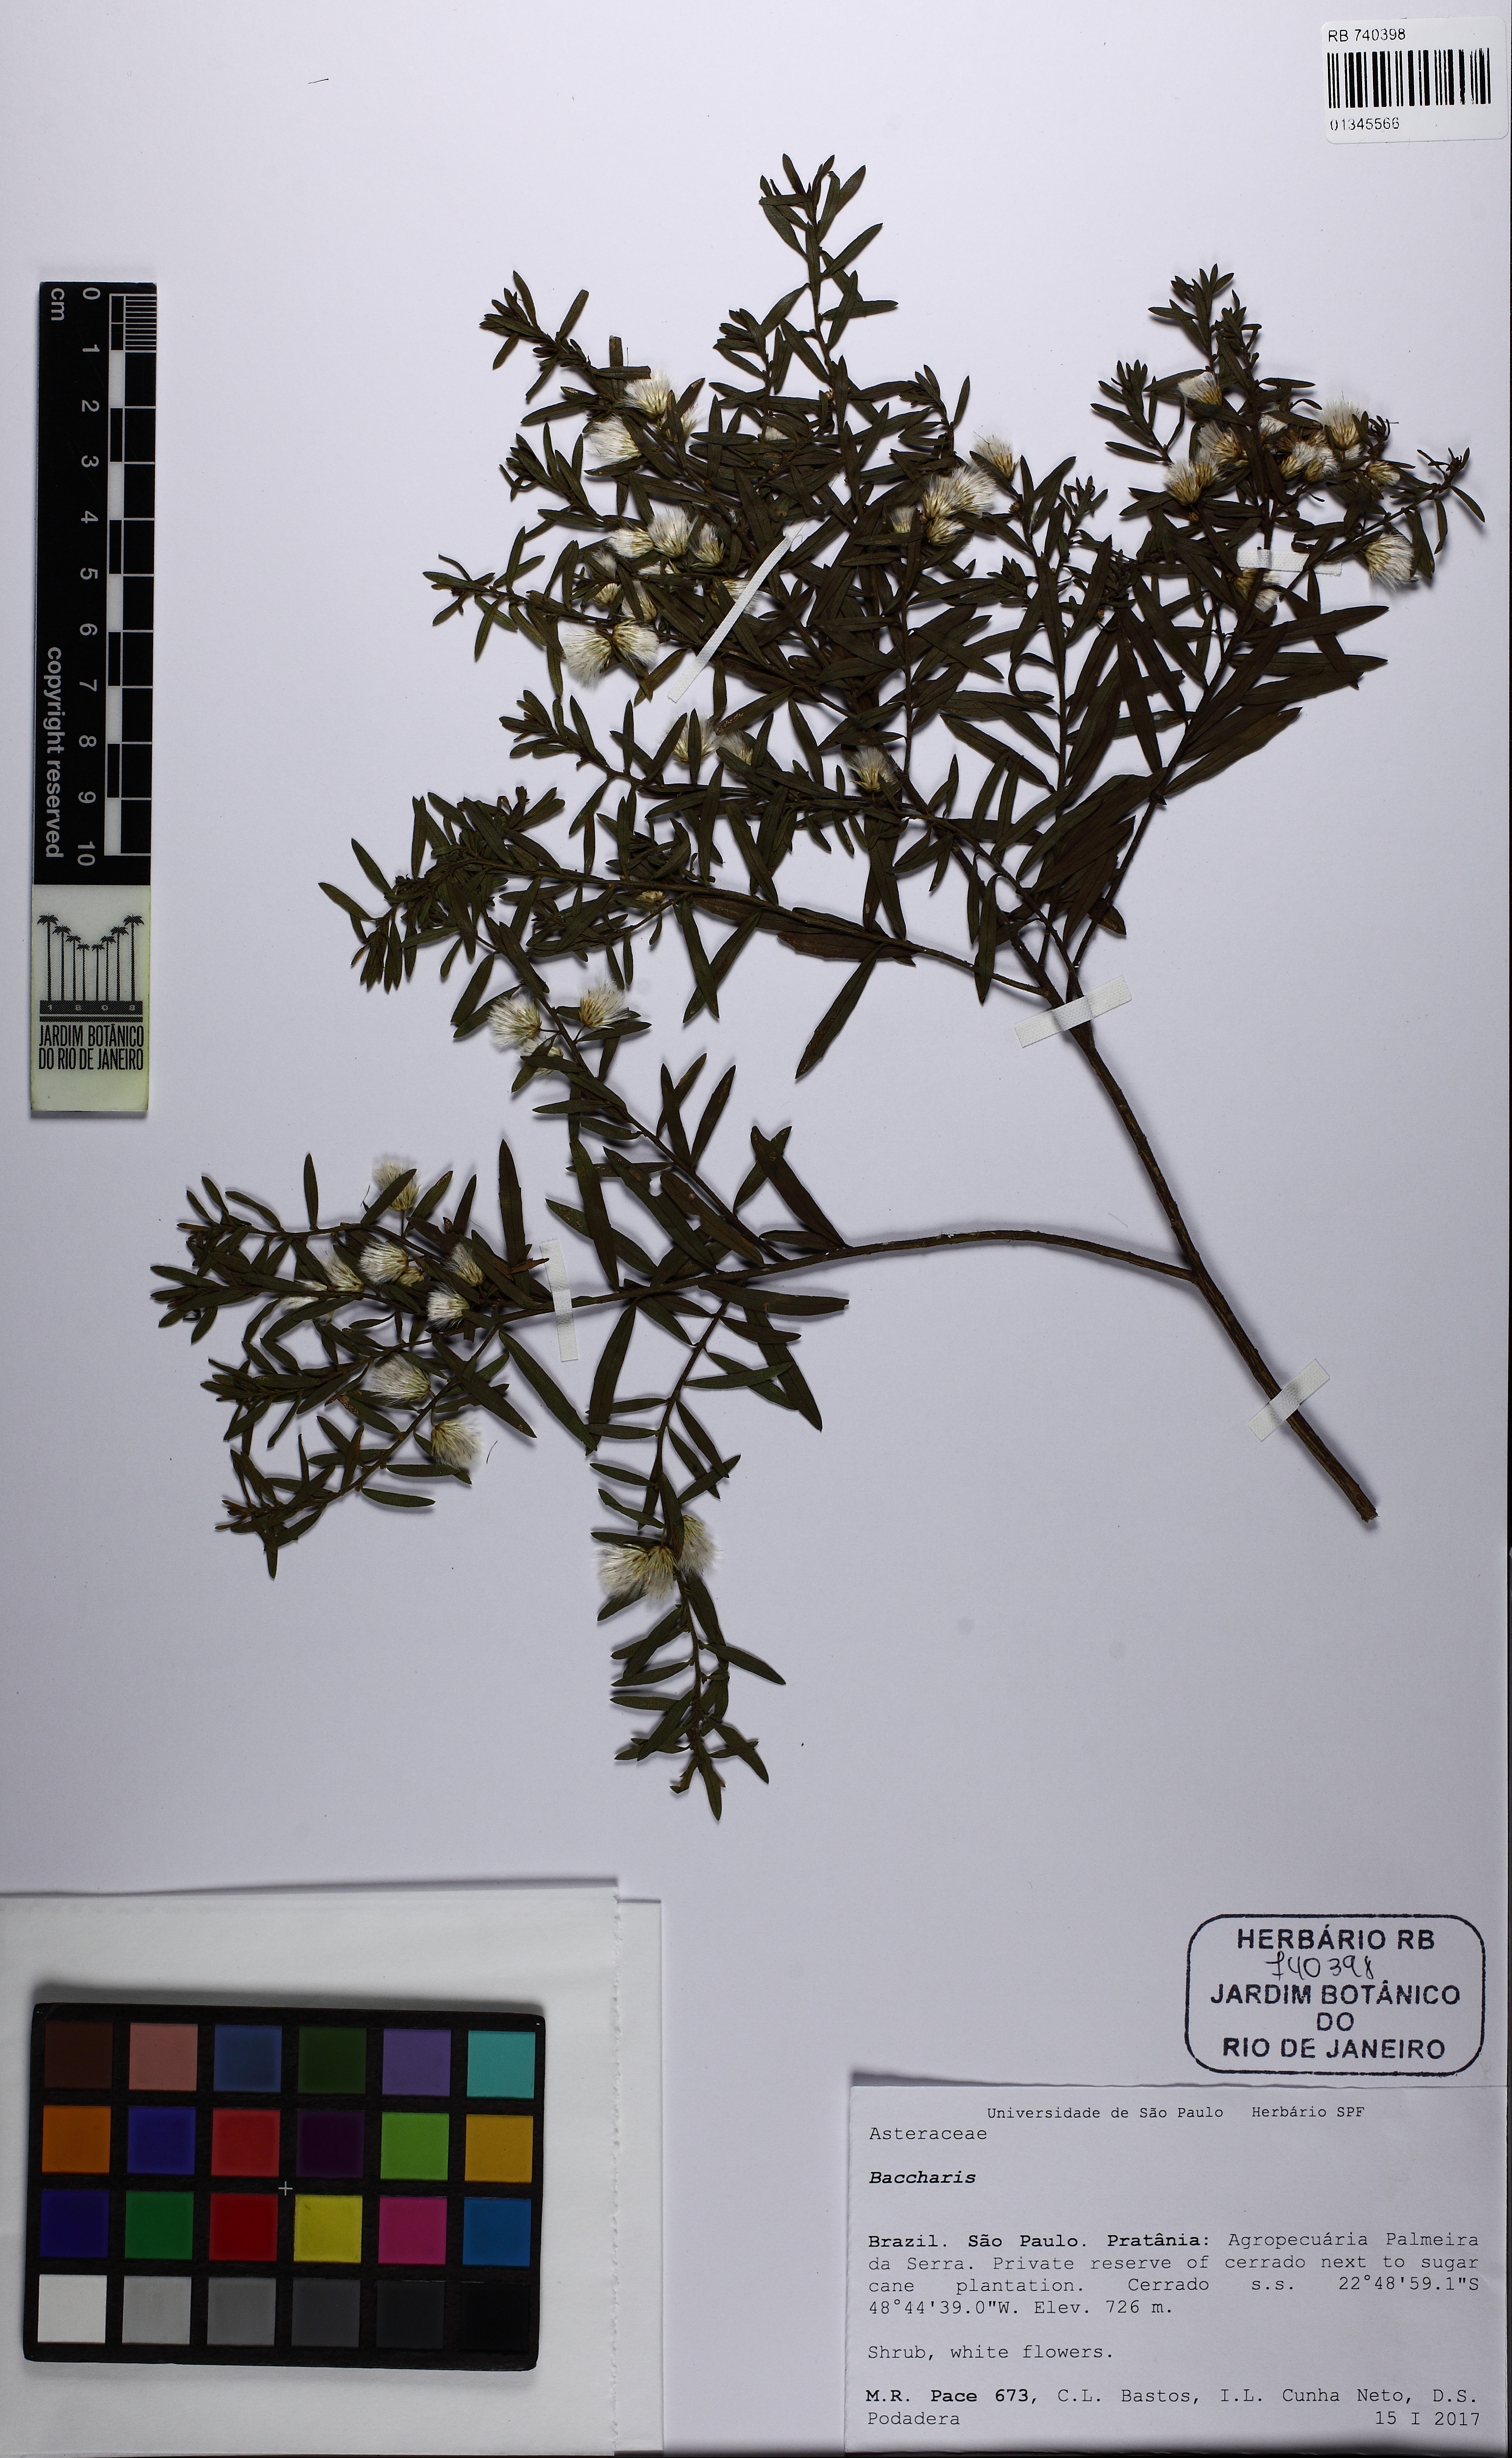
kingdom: Plantae
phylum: Tracheophyta
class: Magnoliopsida
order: Asterales
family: Asteraceae
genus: Baccharis
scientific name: Baccharis dracunculifolia
